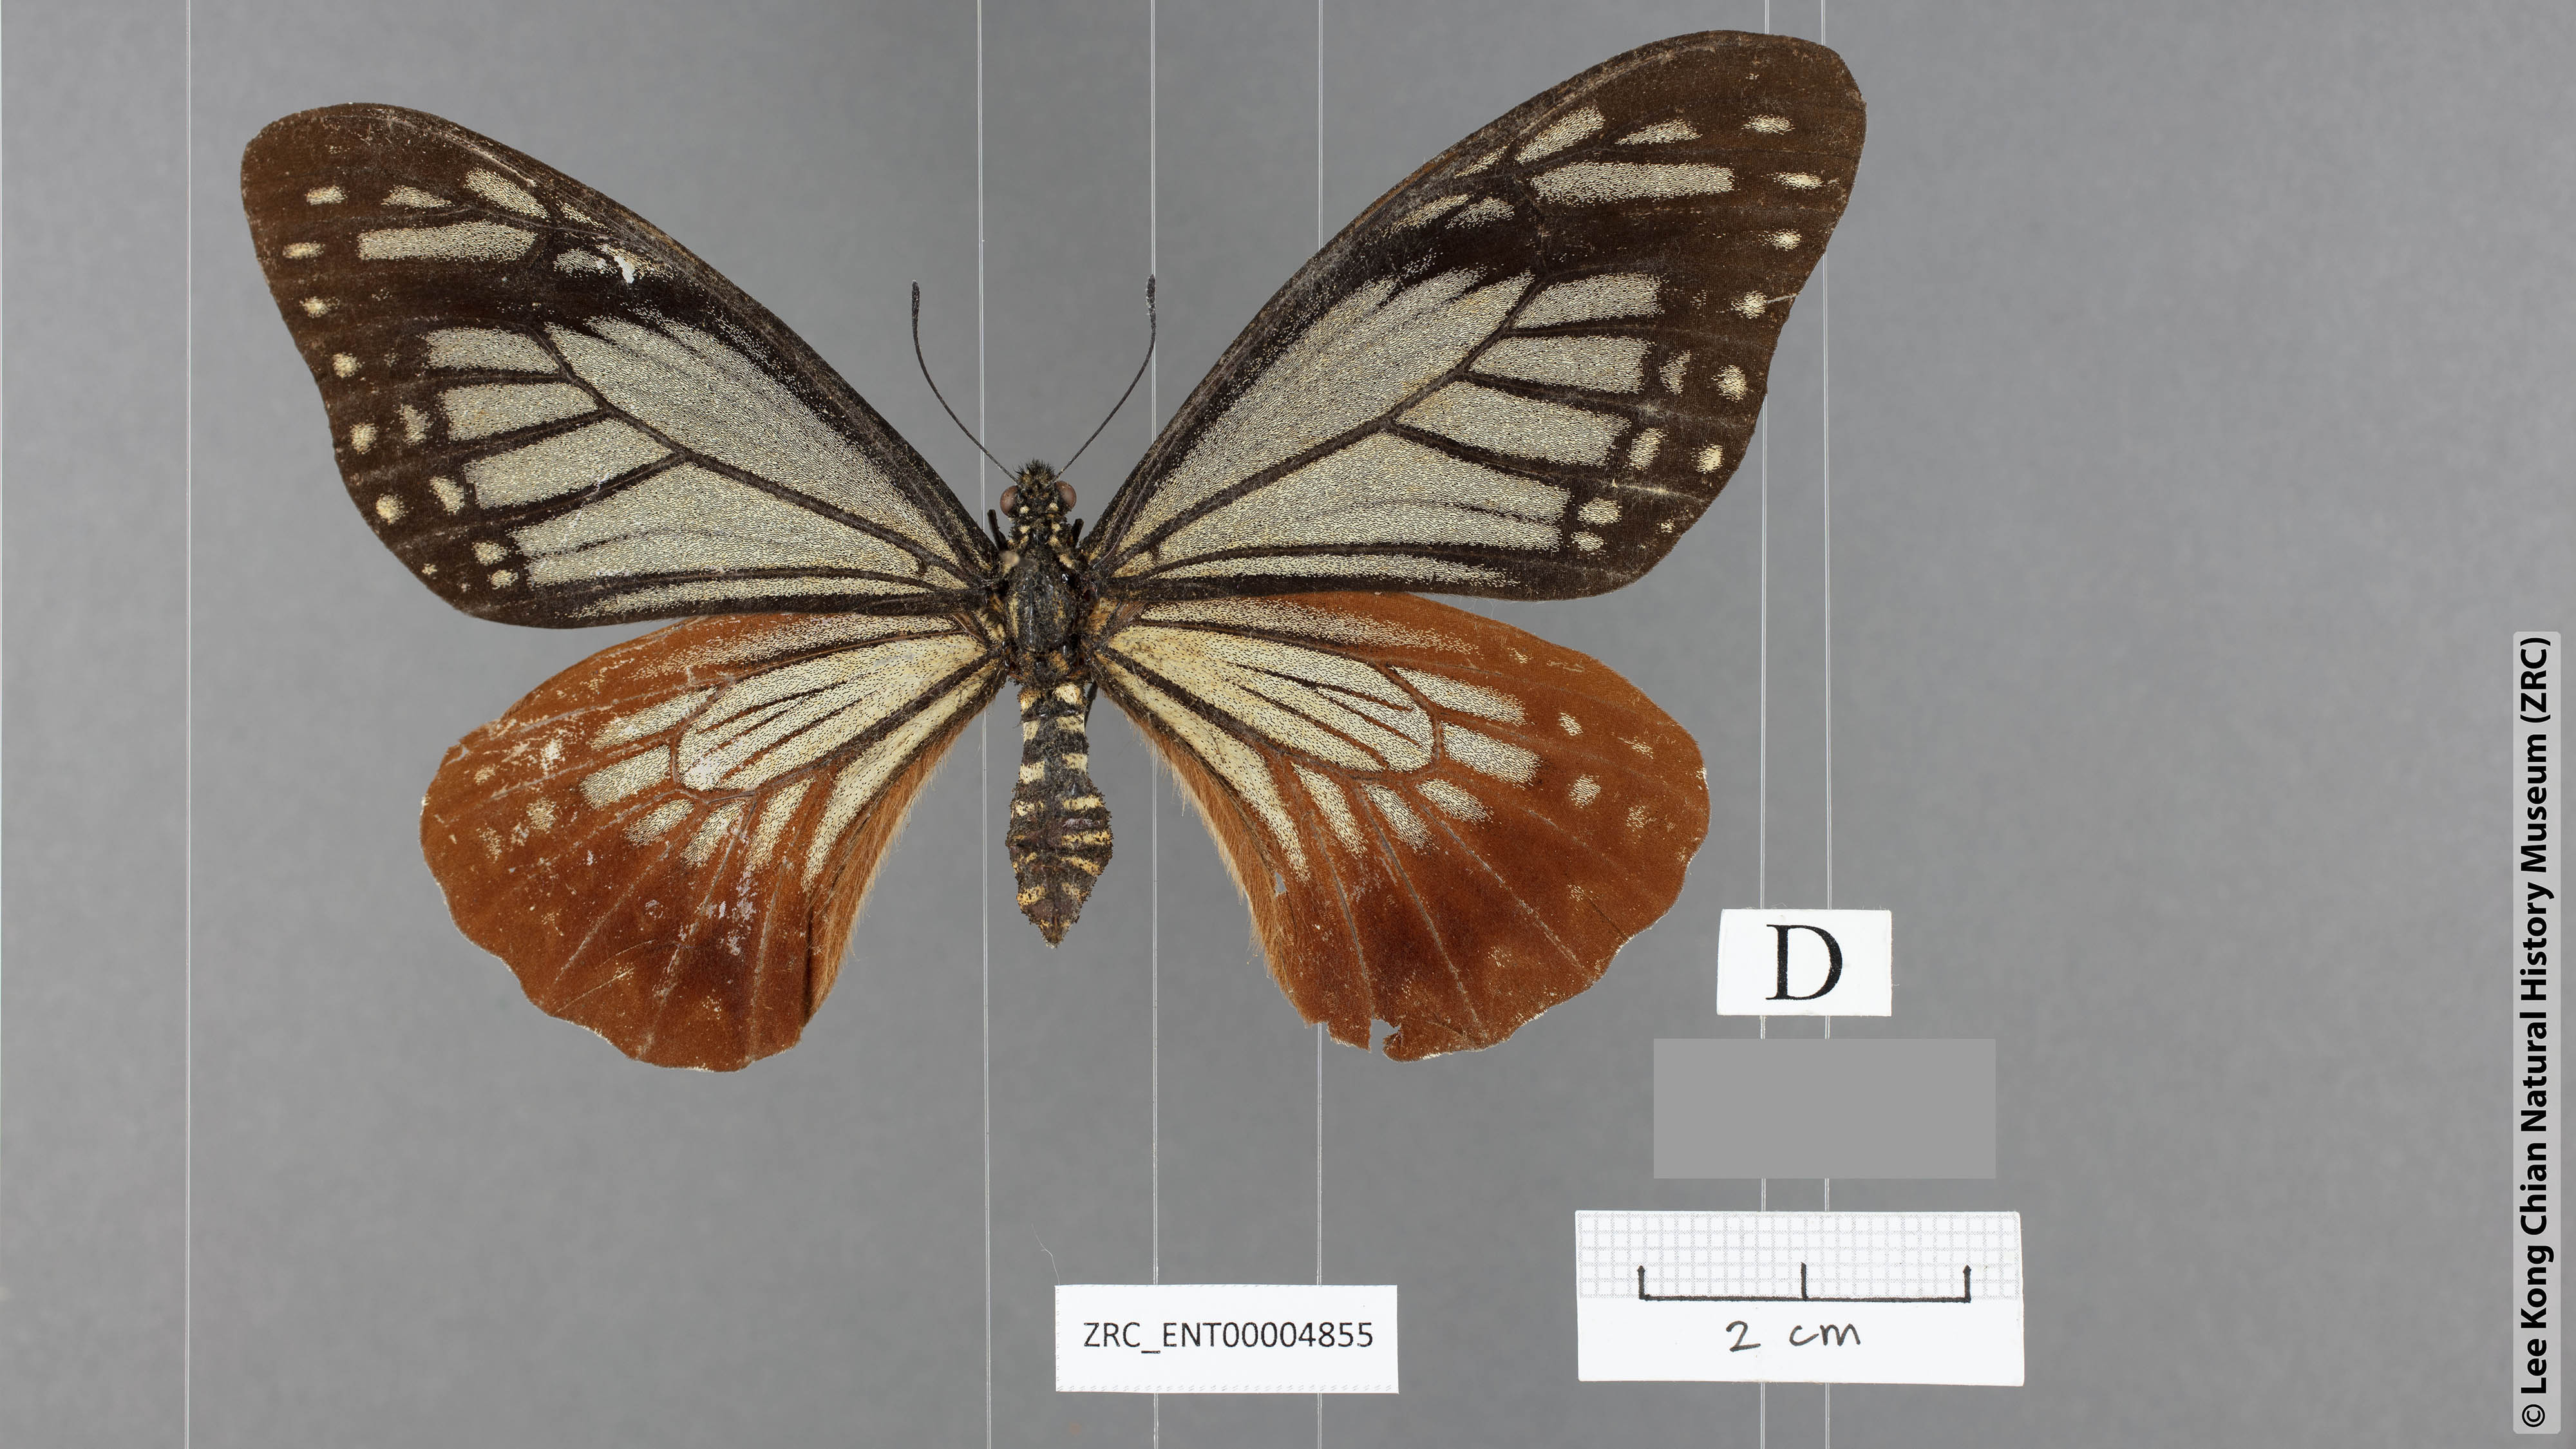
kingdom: Animalia
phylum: Arthropoda
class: Insecta
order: Lepidoptera
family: Papilionidae
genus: Chilasa
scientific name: Chilasa agestor
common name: Tawny mime
